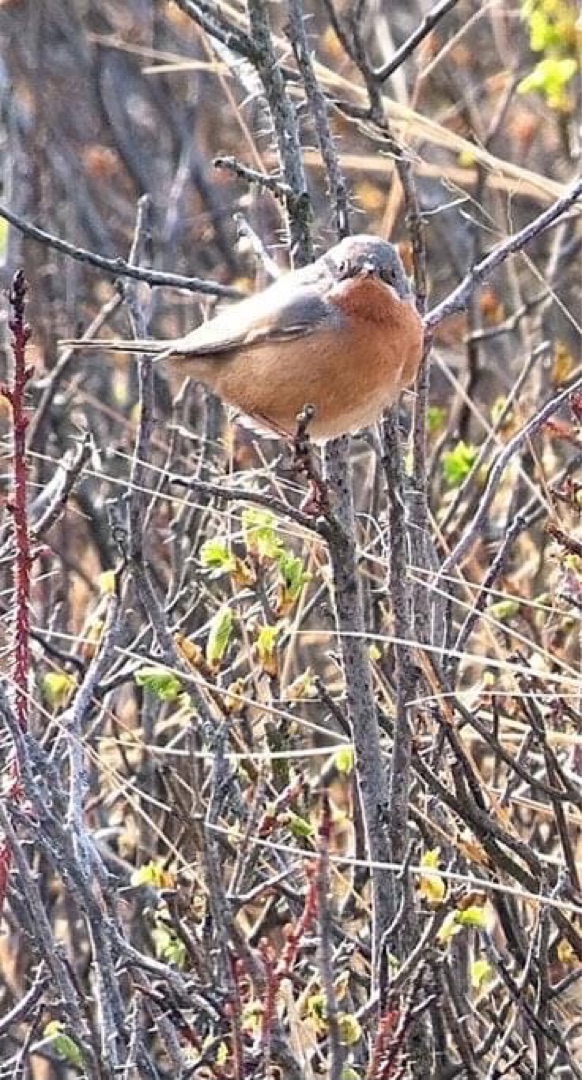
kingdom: Animalia
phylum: Chordata
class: Aves
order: Passeriformes
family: Sylviidae
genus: Curruca
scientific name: Curruca iberiae
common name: Iberisk sanger
